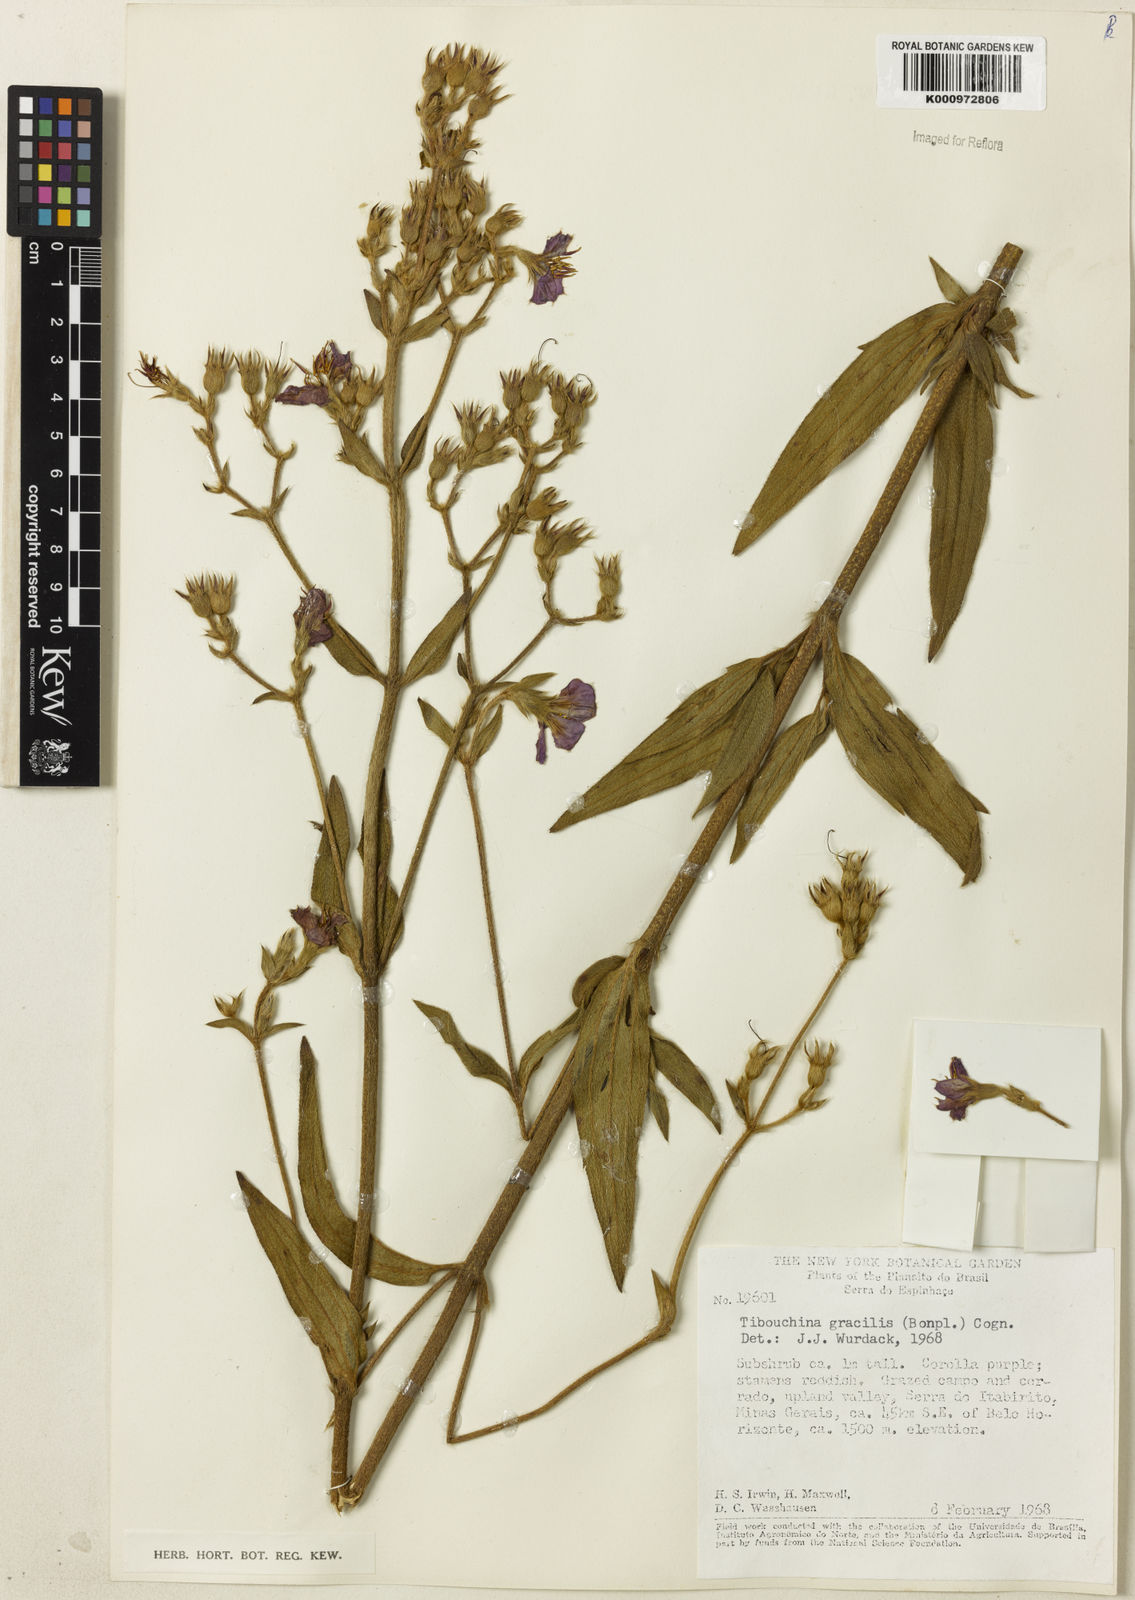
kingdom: Plantae
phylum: Tracheophyta
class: Magnoliopsida
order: Myrtales
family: Melastomataceae
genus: Chaetogastra
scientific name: Chaetogastra gracilis
